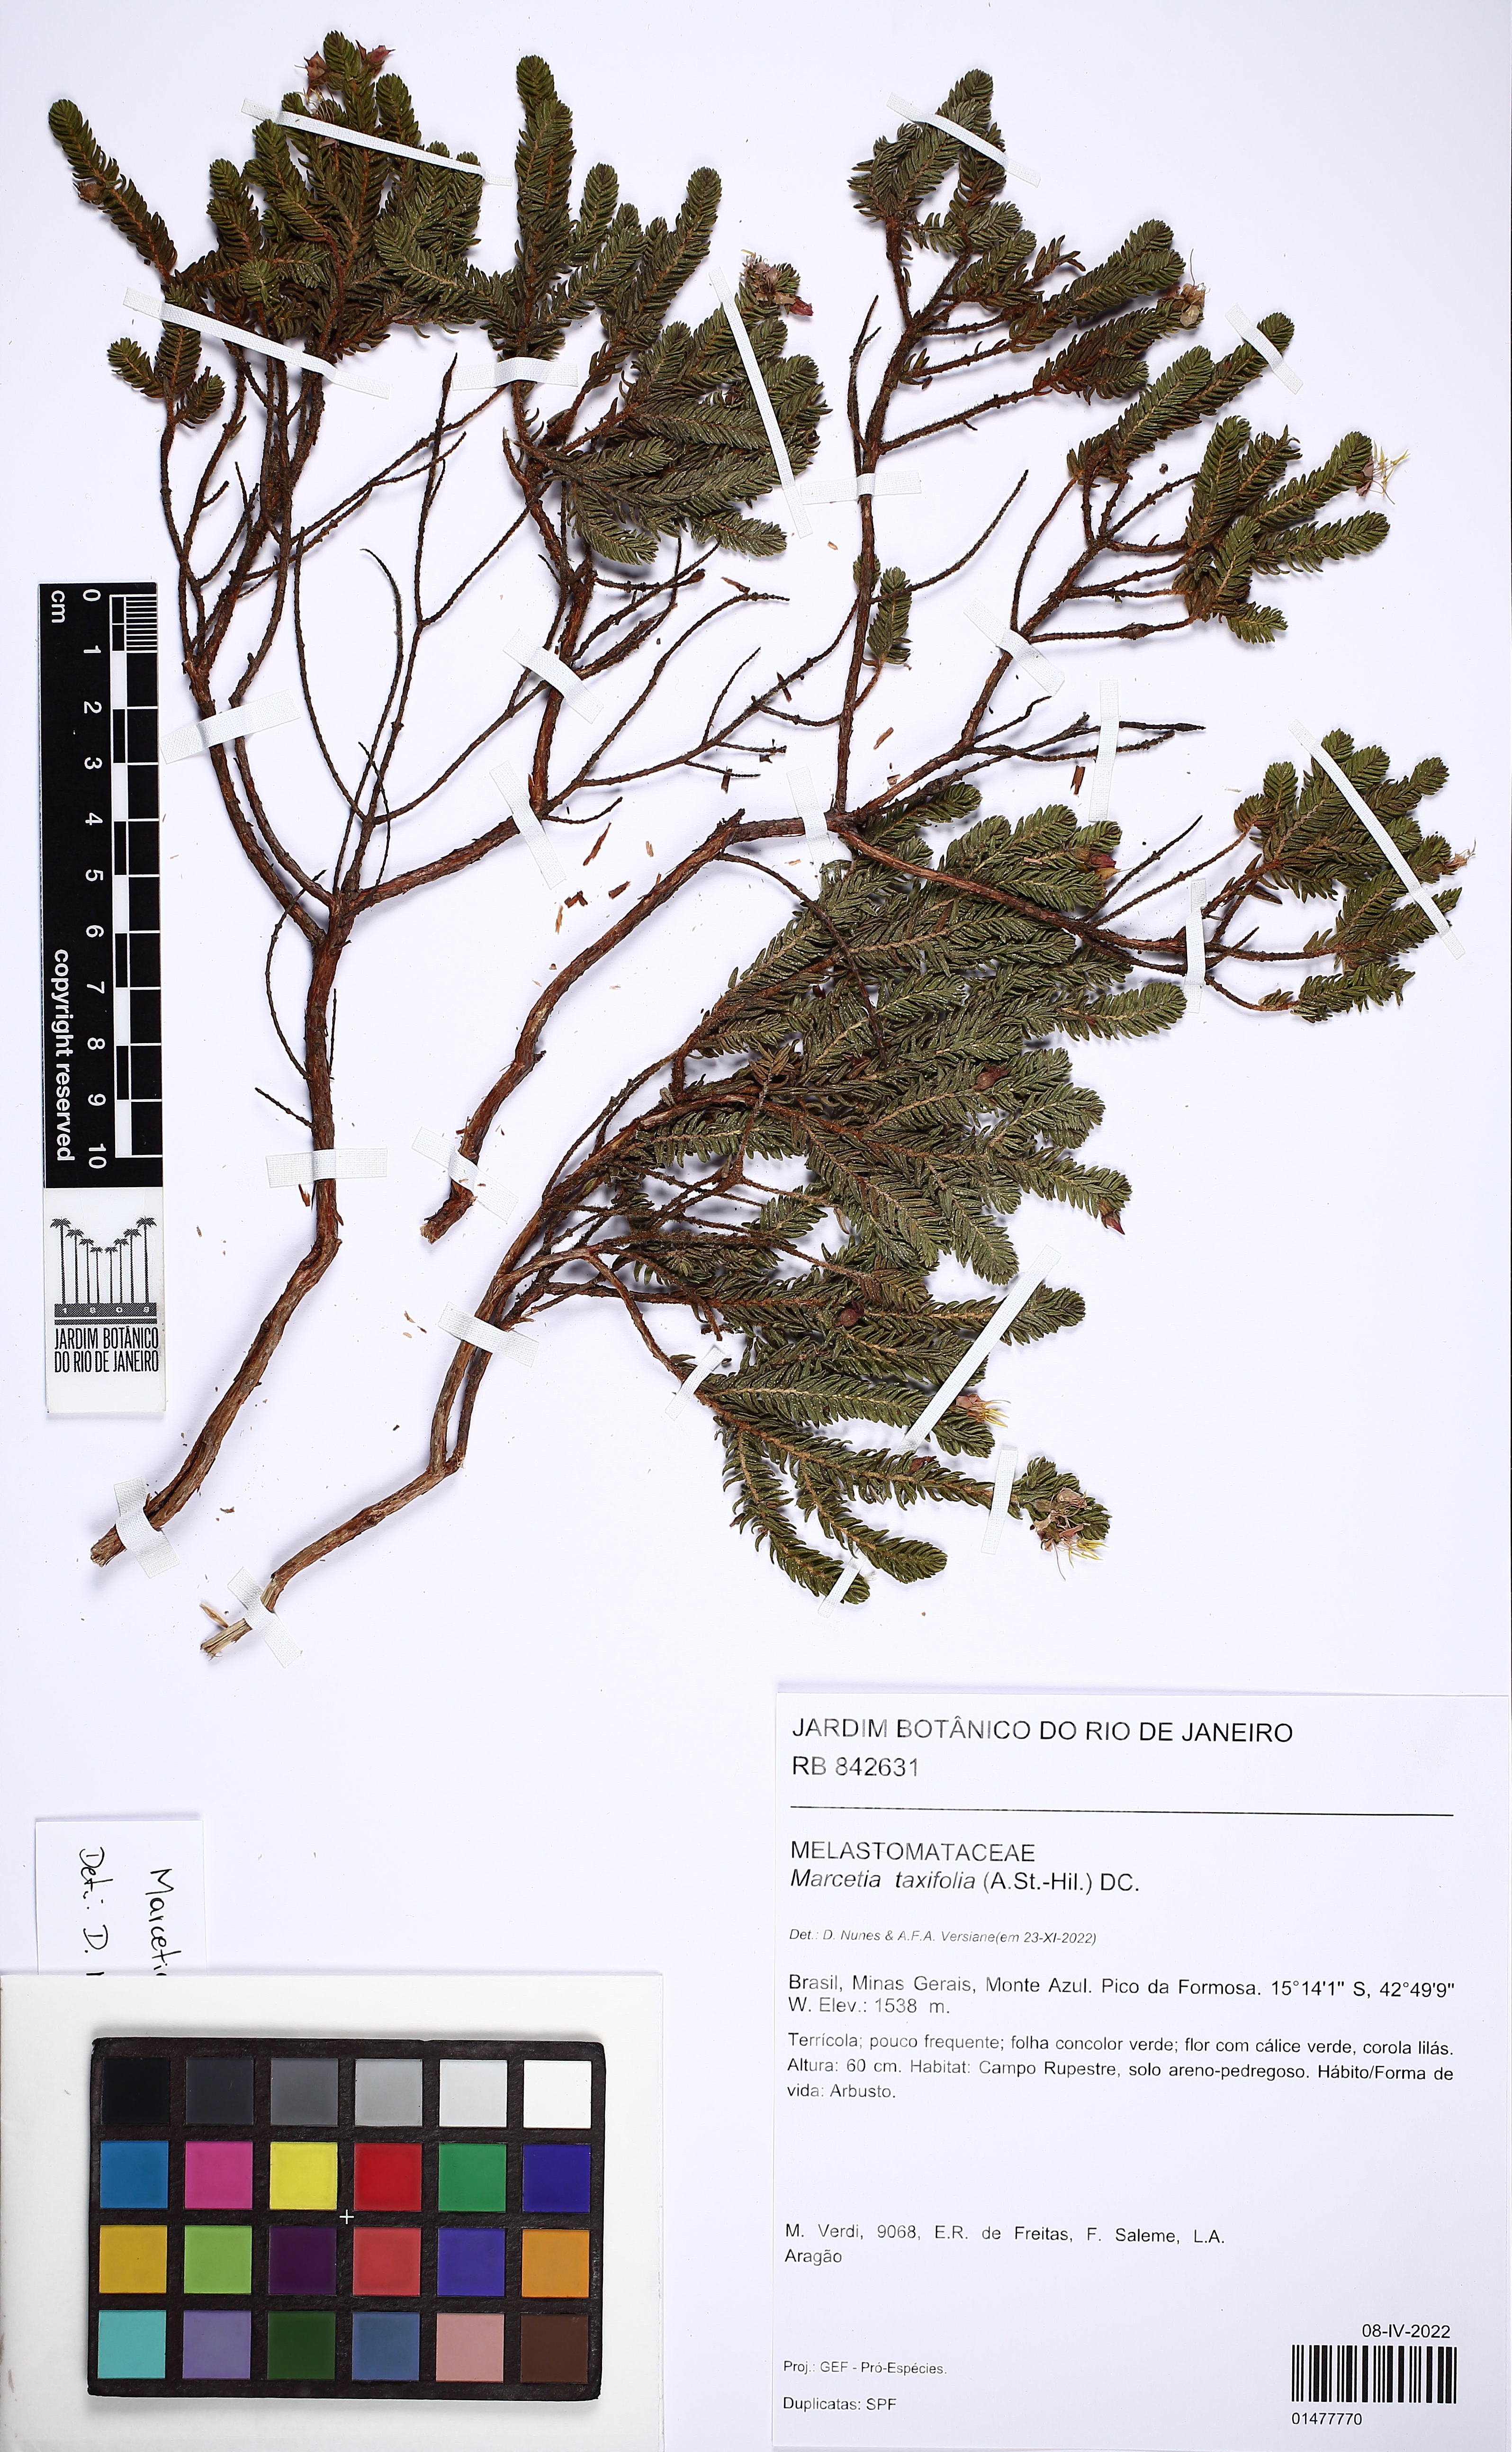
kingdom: Plantae
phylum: Tracheophyta
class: Magnoliopsida
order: Myrtales
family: Melastomataceae
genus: Marcetia
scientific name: Marcetia taxifolia
